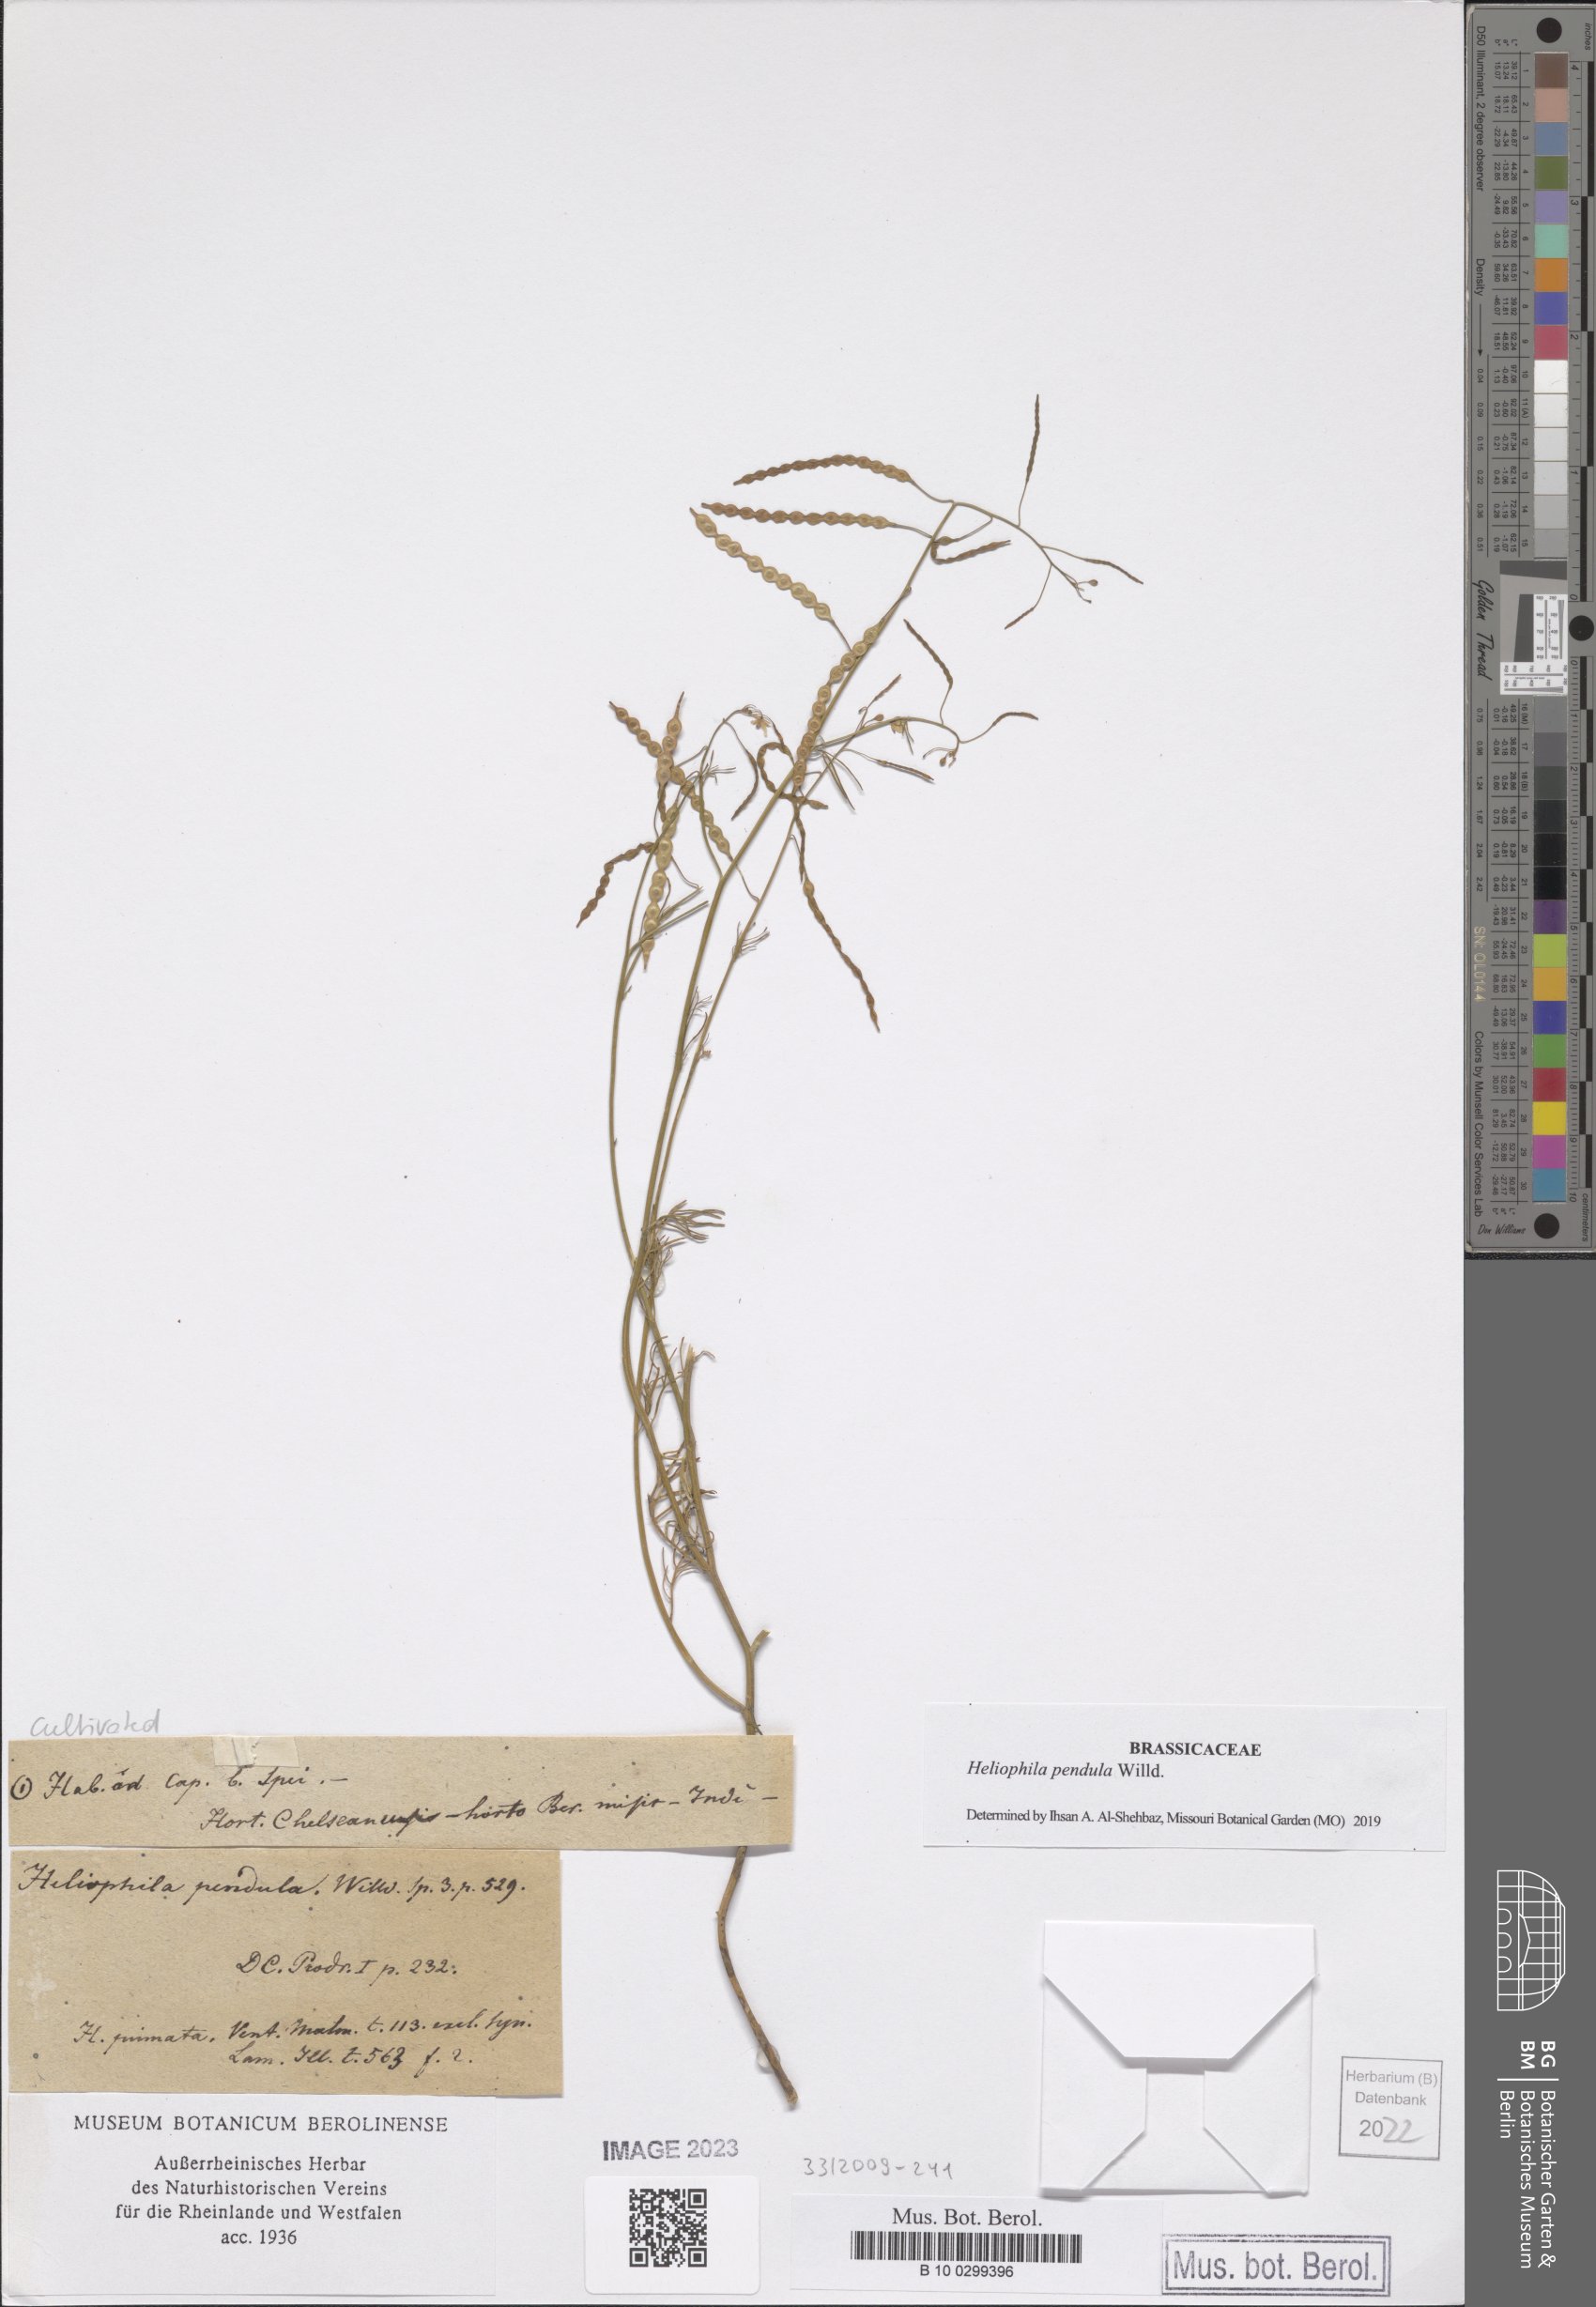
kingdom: Plantae
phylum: Tracheophyta
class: Magnoliopsida
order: Brassicales
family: Brassicaceae
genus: Heliophila
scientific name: Heliophila pendula
